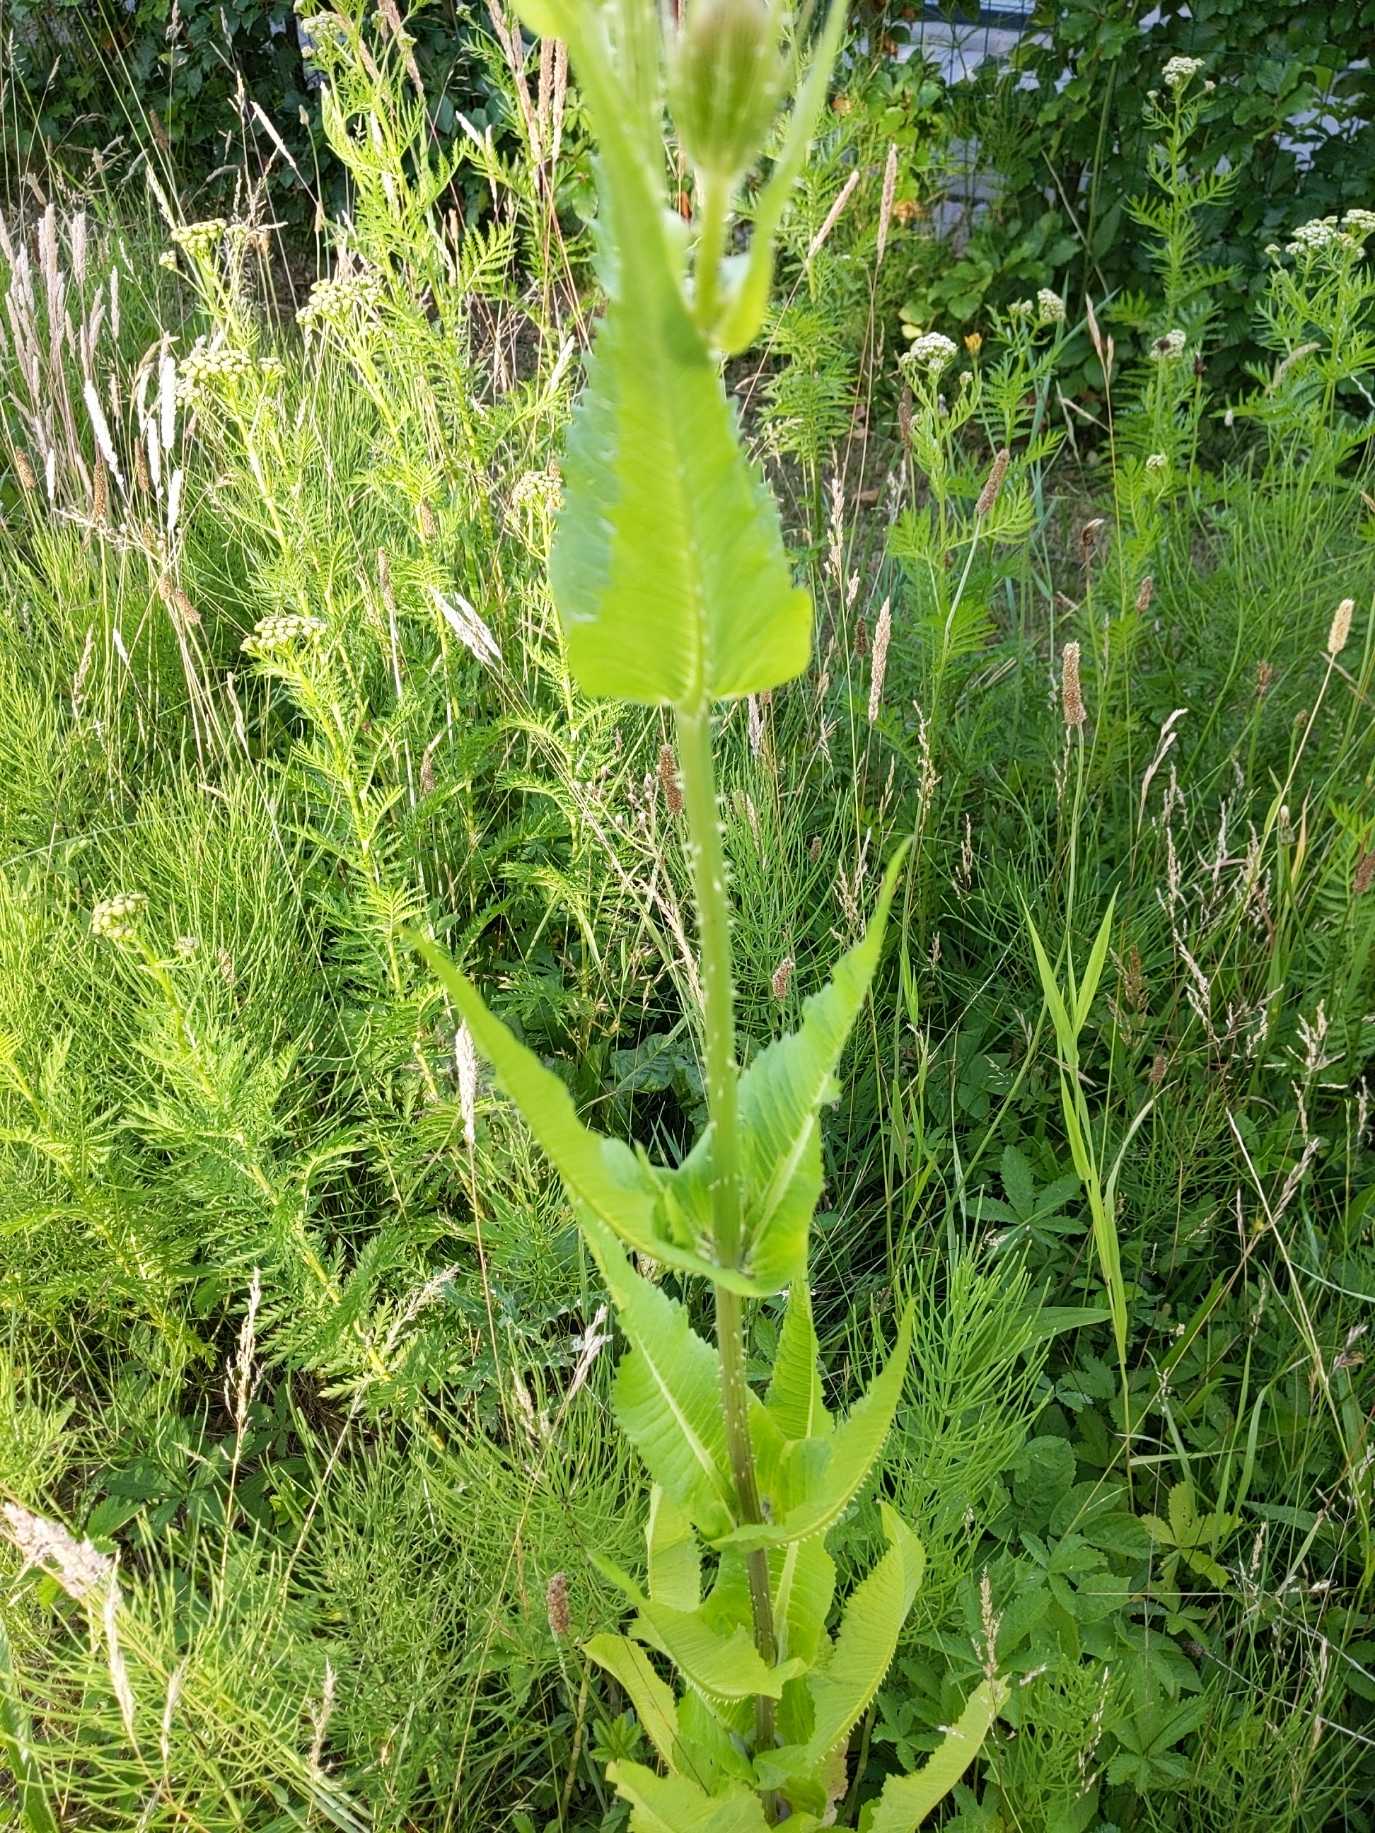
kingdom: Plantae
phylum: Tracheophyta
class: Magnoliopsida
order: Dipsacales
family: Caprifoliaceae
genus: Dipsacus
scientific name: Dipsacus fullonum
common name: Gærde-kartebolle
